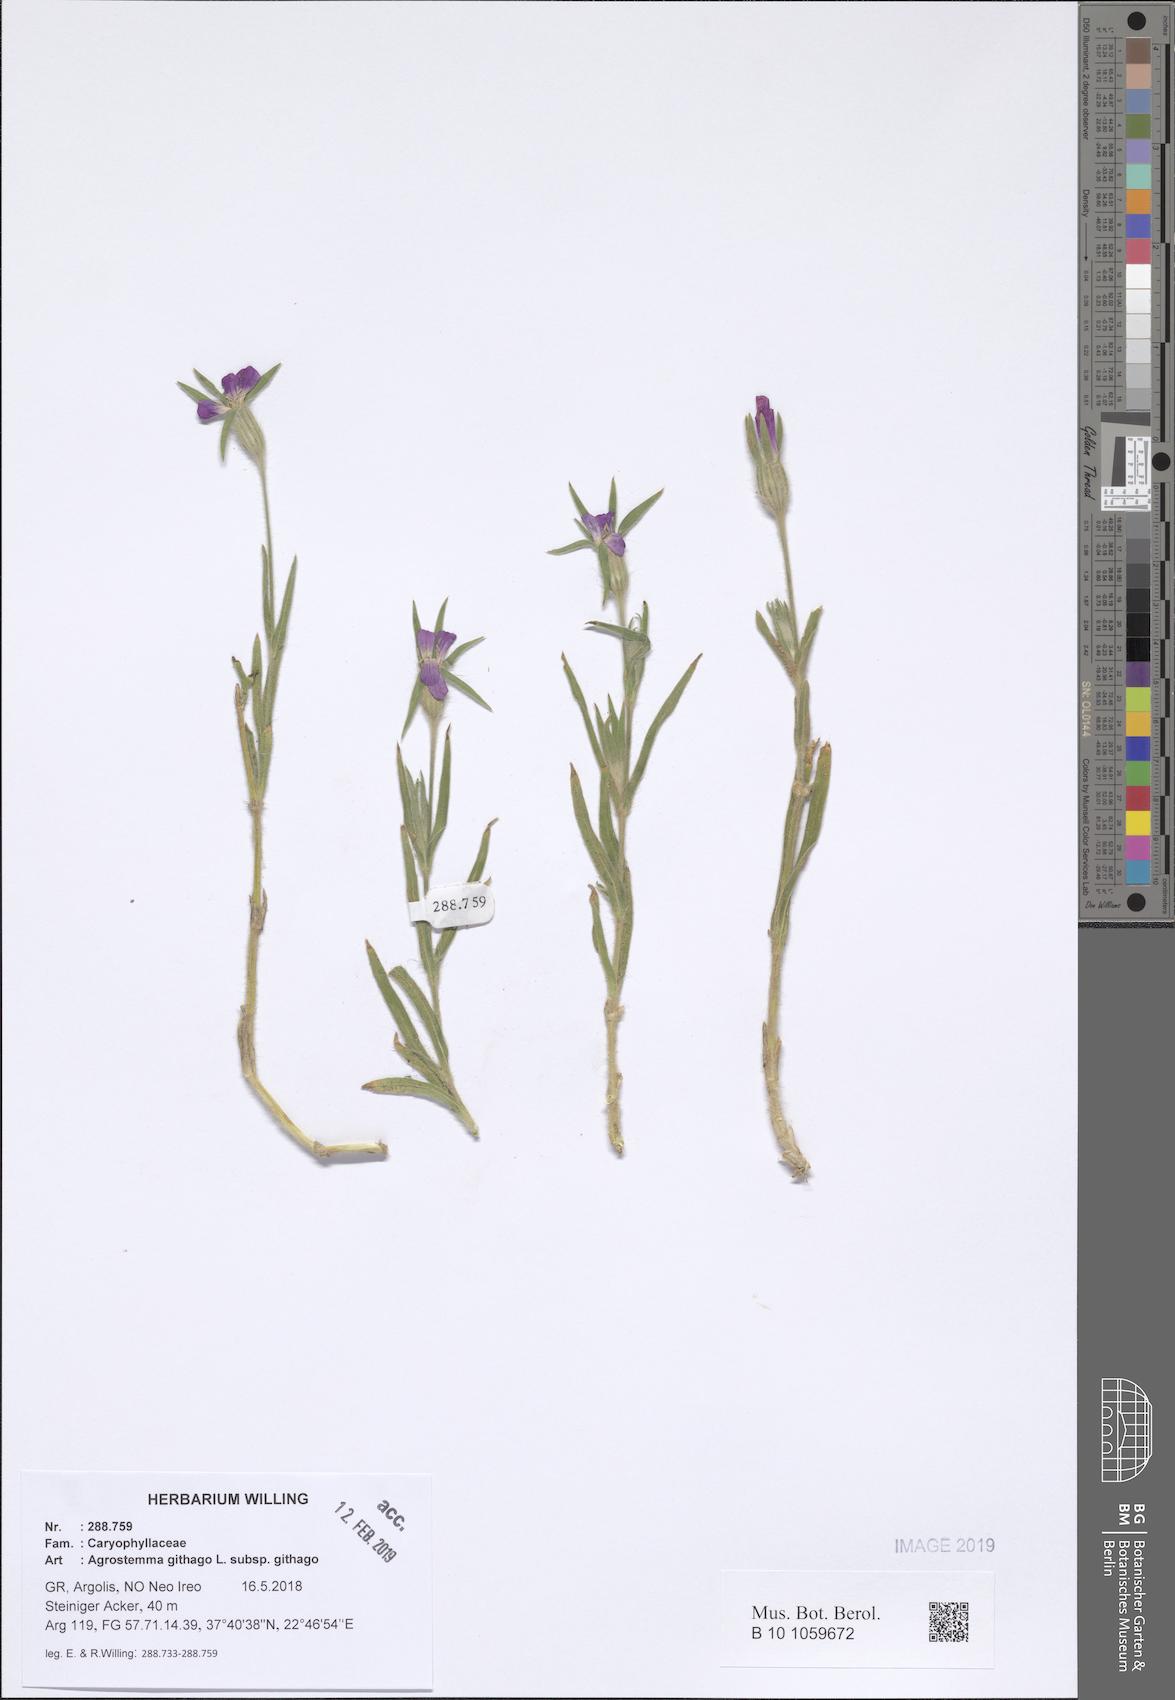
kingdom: Plantae
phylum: Tracheophyta
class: Magnoliopsida
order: Caryophyllales
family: Caryophyllaceae
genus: Agrostemma
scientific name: Agrostemma githago
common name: Common corncockle
